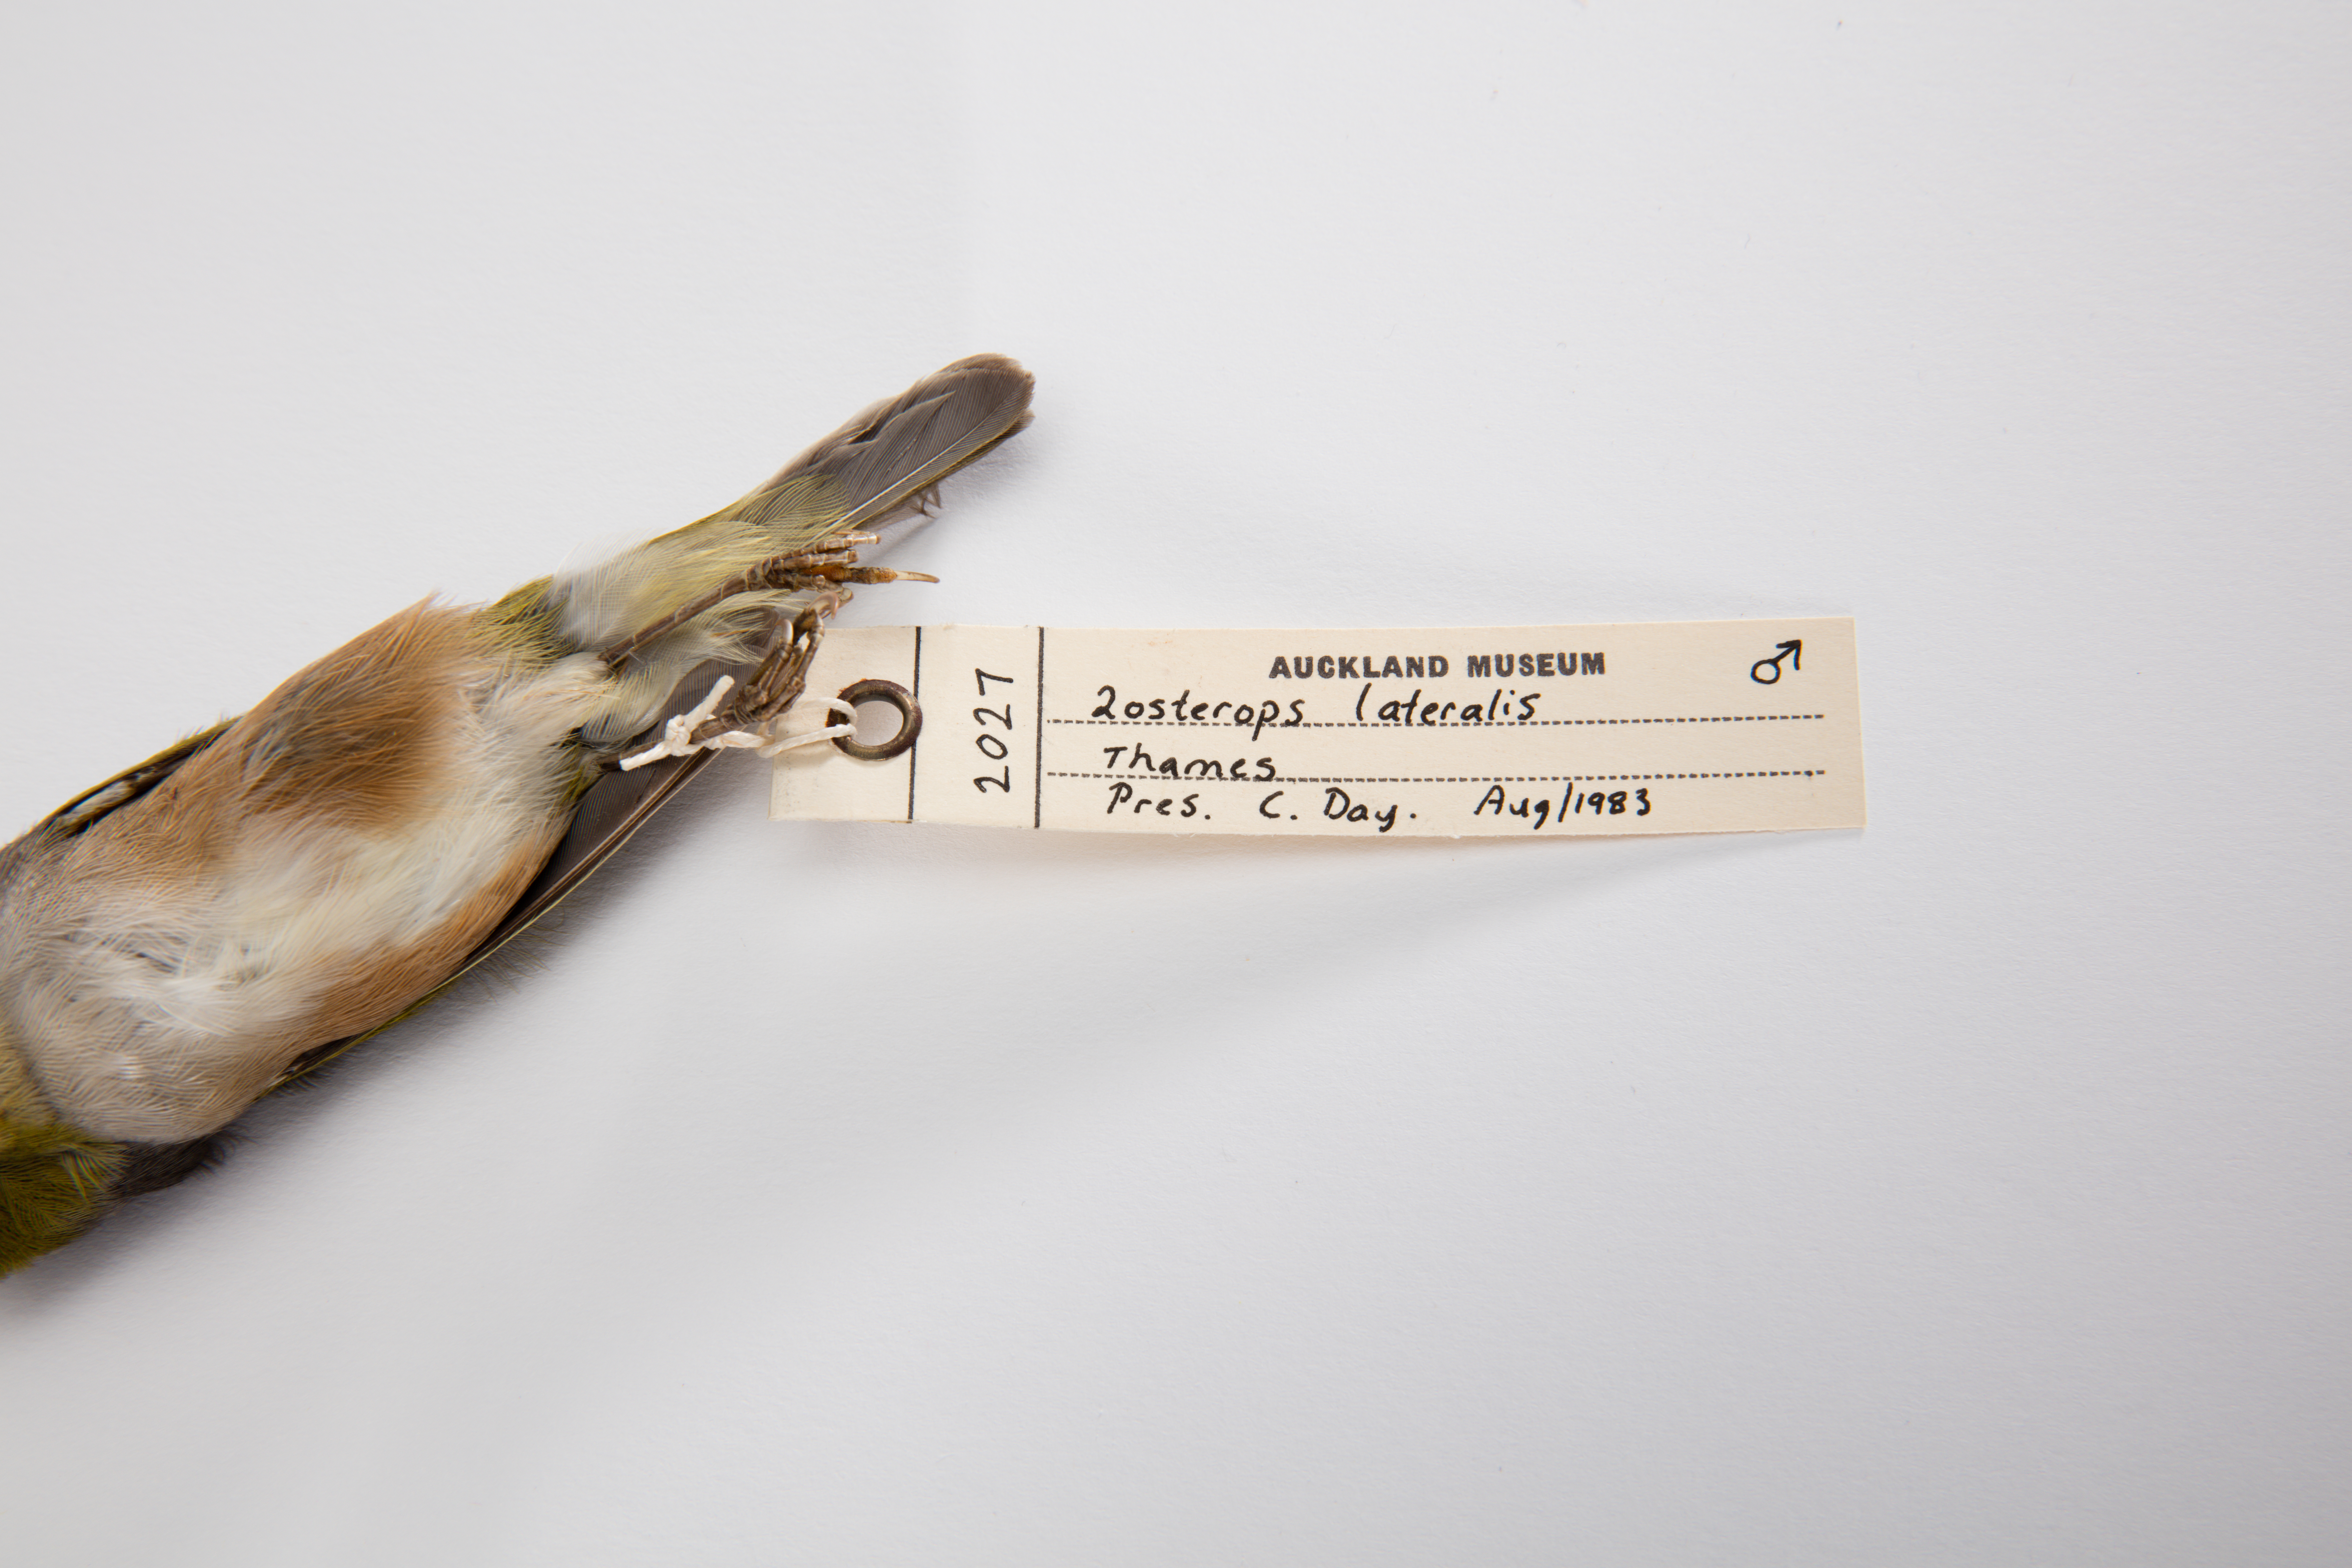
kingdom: Animalia
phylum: Chordata
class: Aves
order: Passeriformes
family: Zosteropidae
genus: Zosterops
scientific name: Zosterops lateralis
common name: Silvereye
